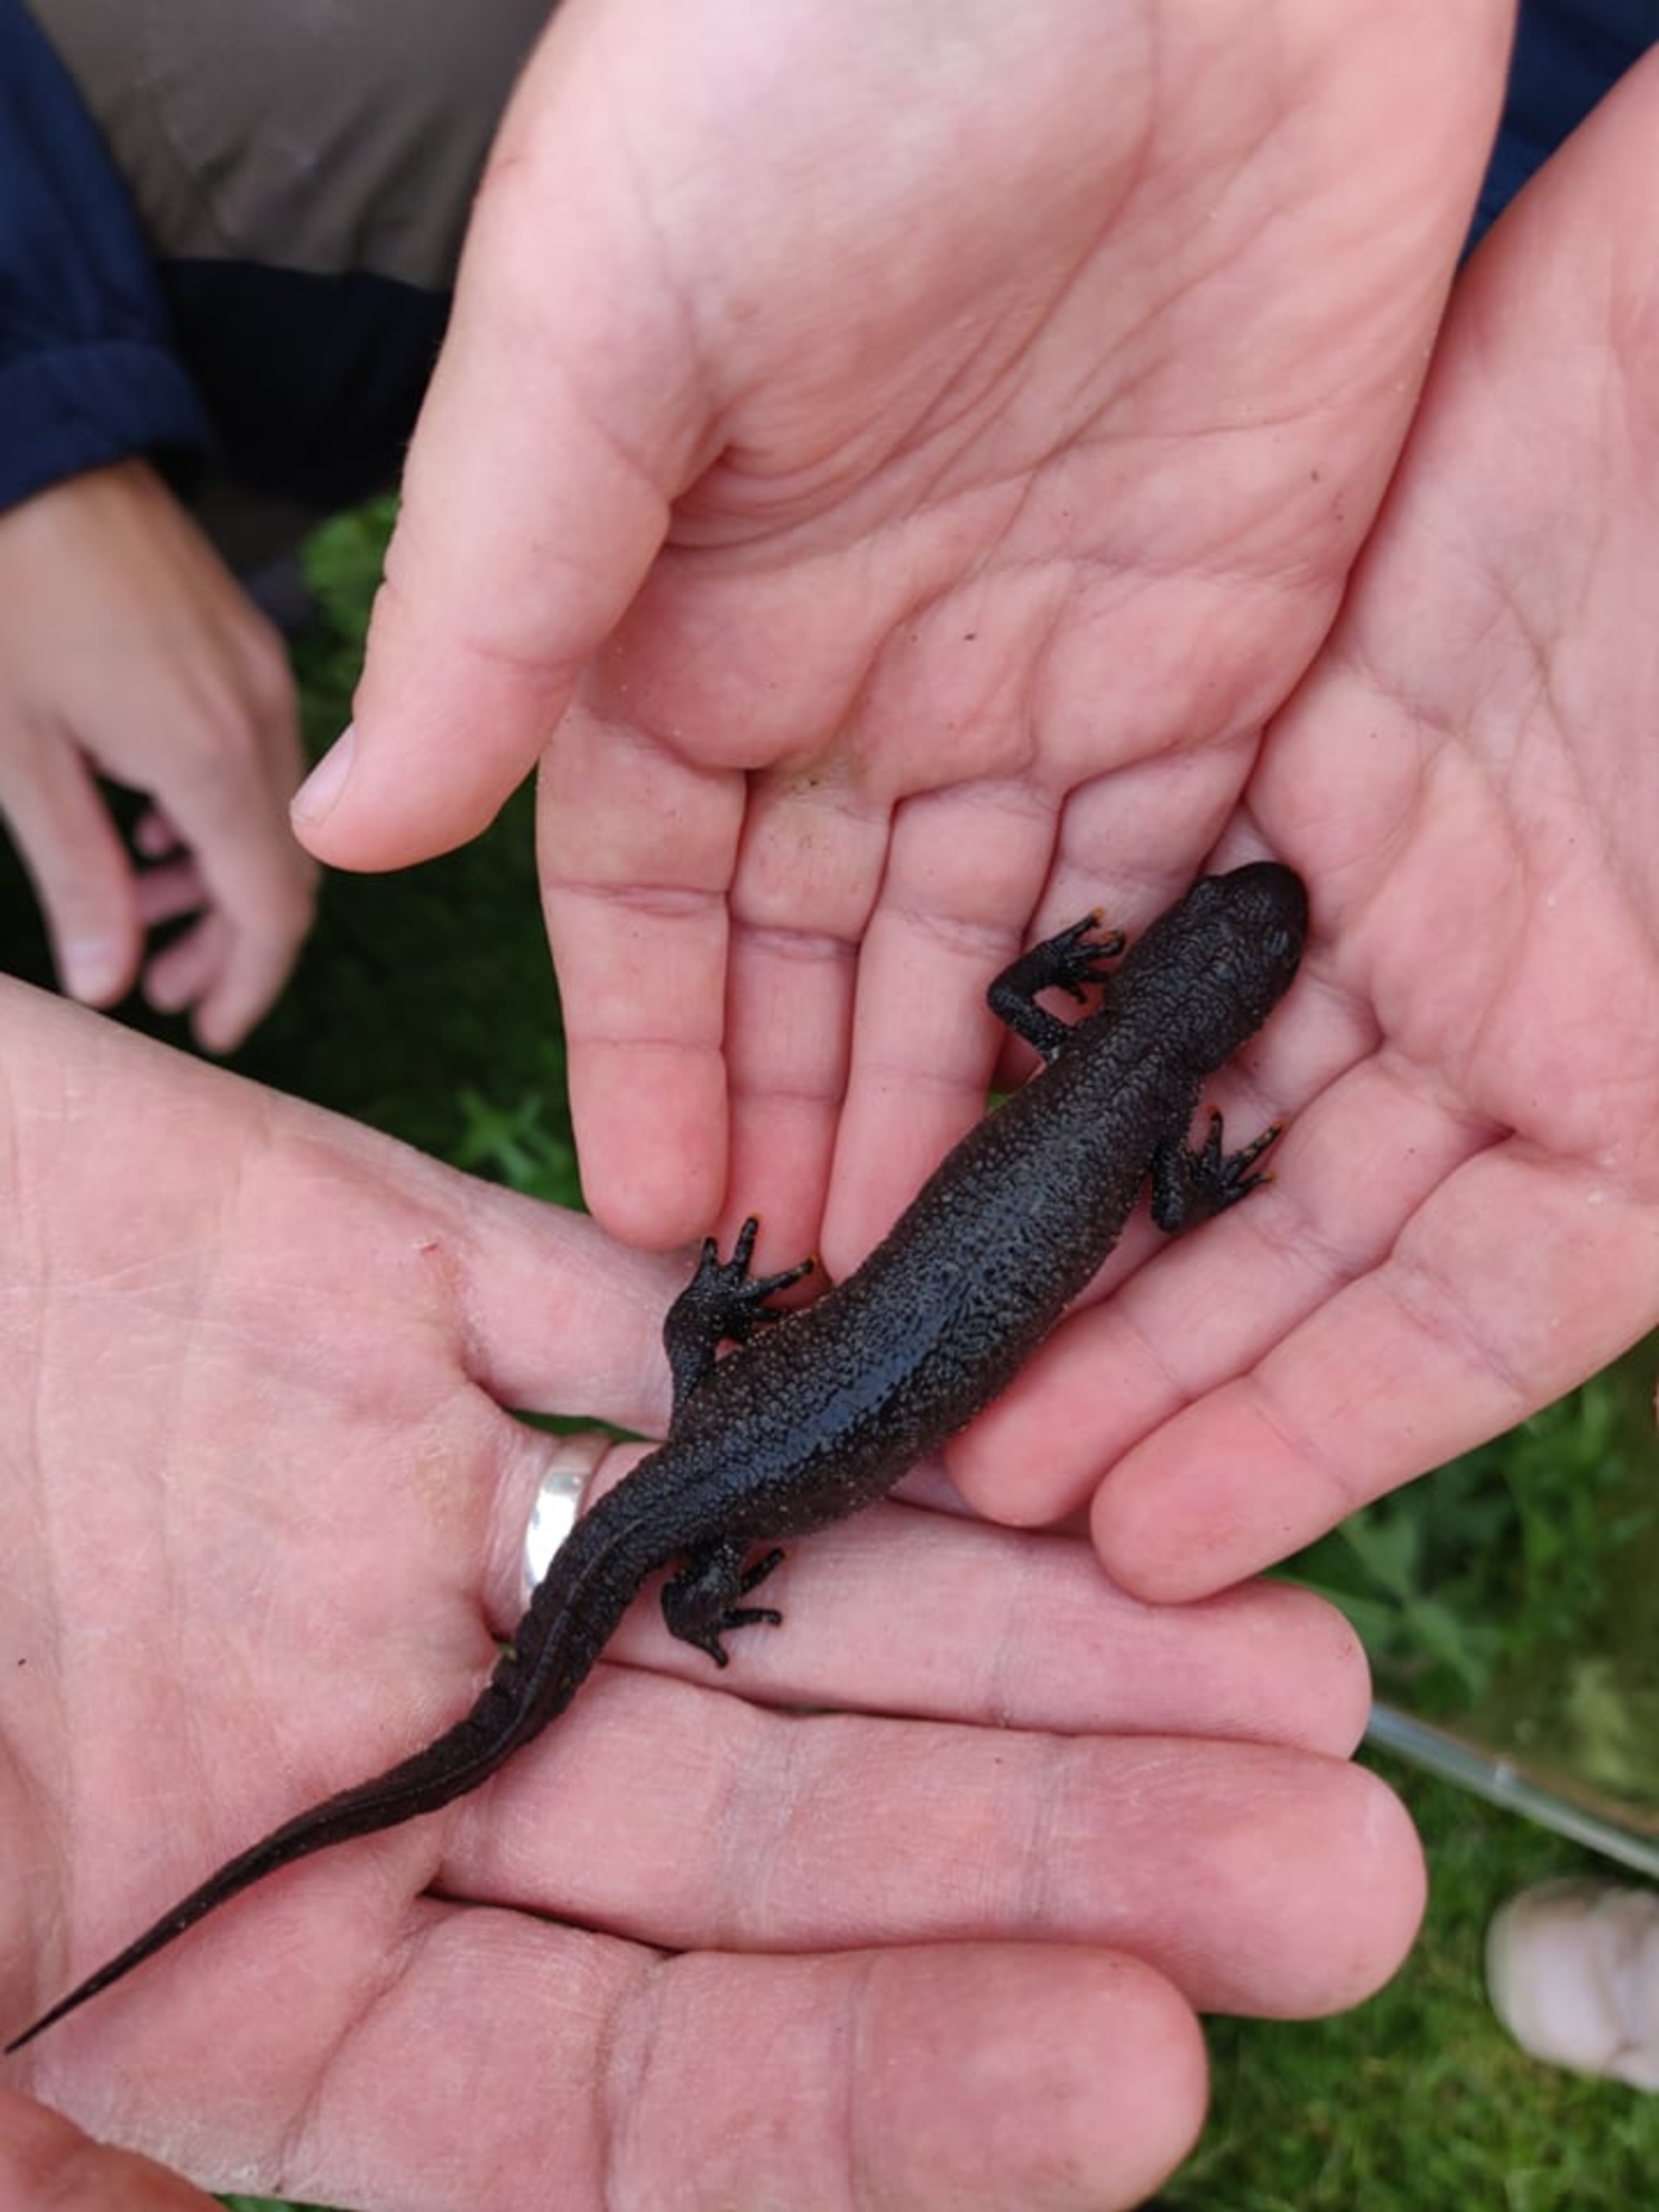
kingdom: Animalia
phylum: Chordata
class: Amphibia
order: Caudata
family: Salamandridae
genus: Triturus
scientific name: Triturus cristatus
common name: Stor vandsalamander
